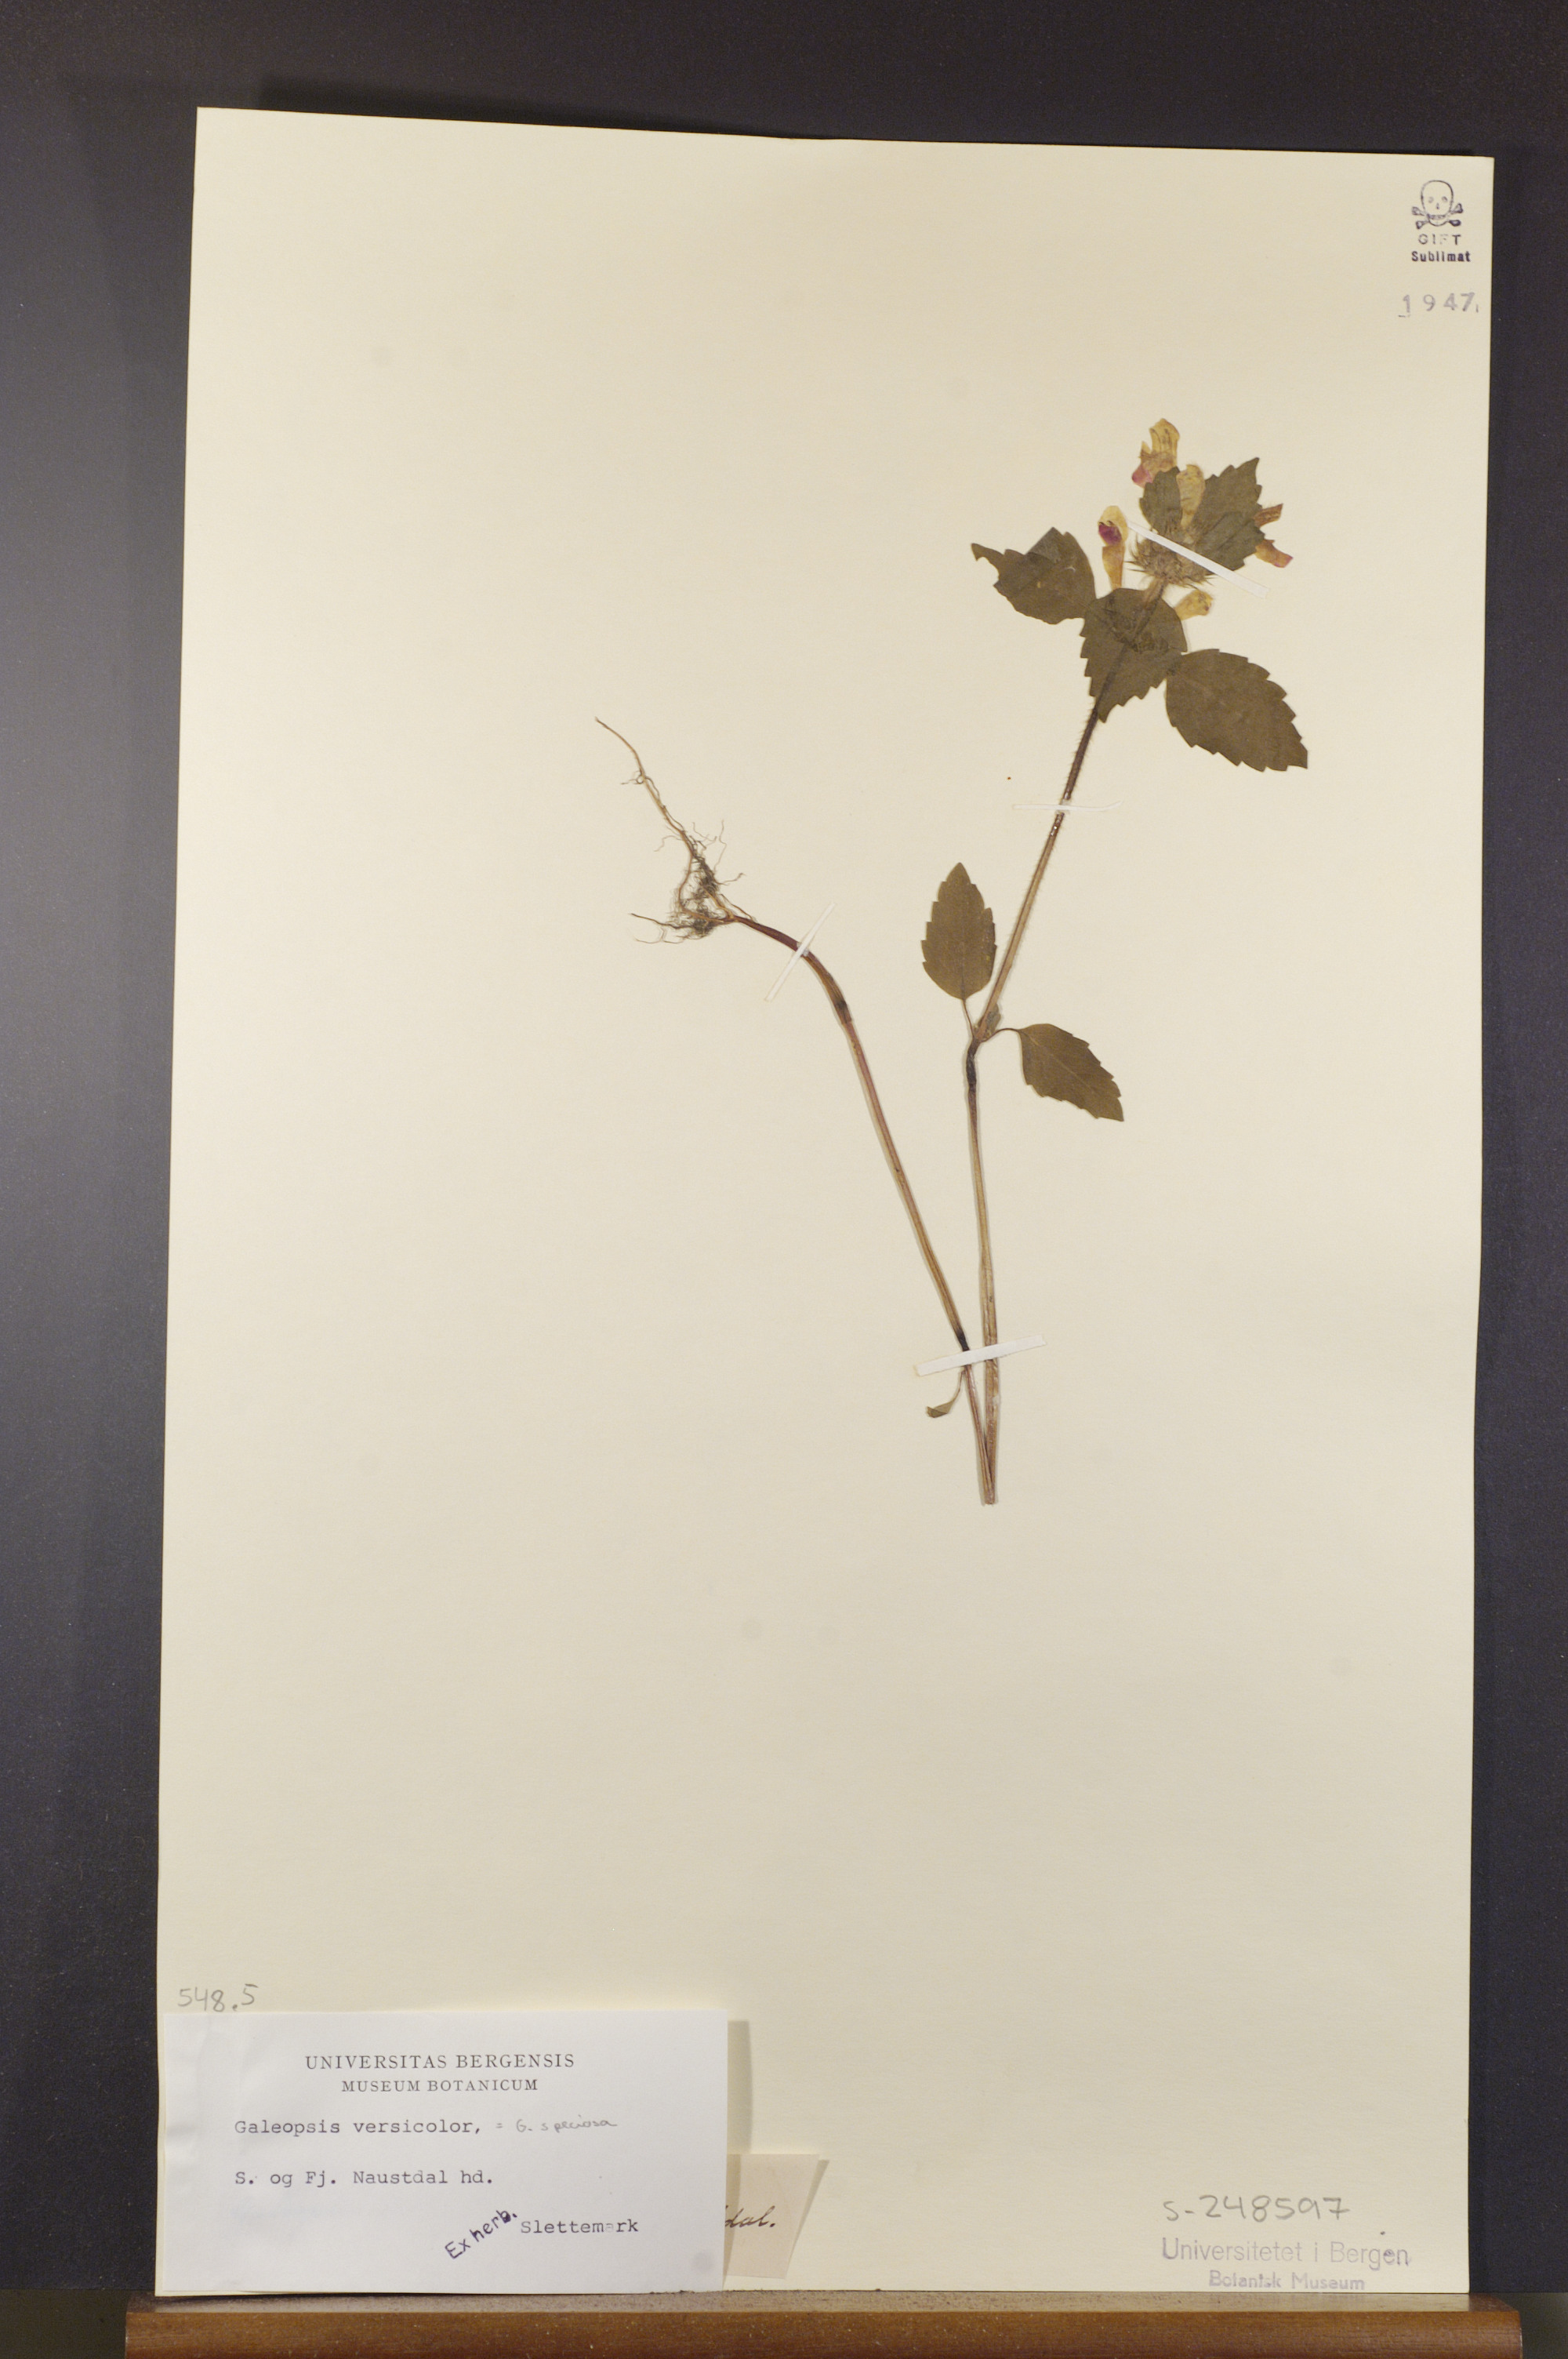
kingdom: Plantae
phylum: Tracheophyta
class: Magnoliopsida
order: Lamiales
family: Lamiaceae
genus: Galeopsis
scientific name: Galeopsis speciosa
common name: Large-flowered hemp-nettle
